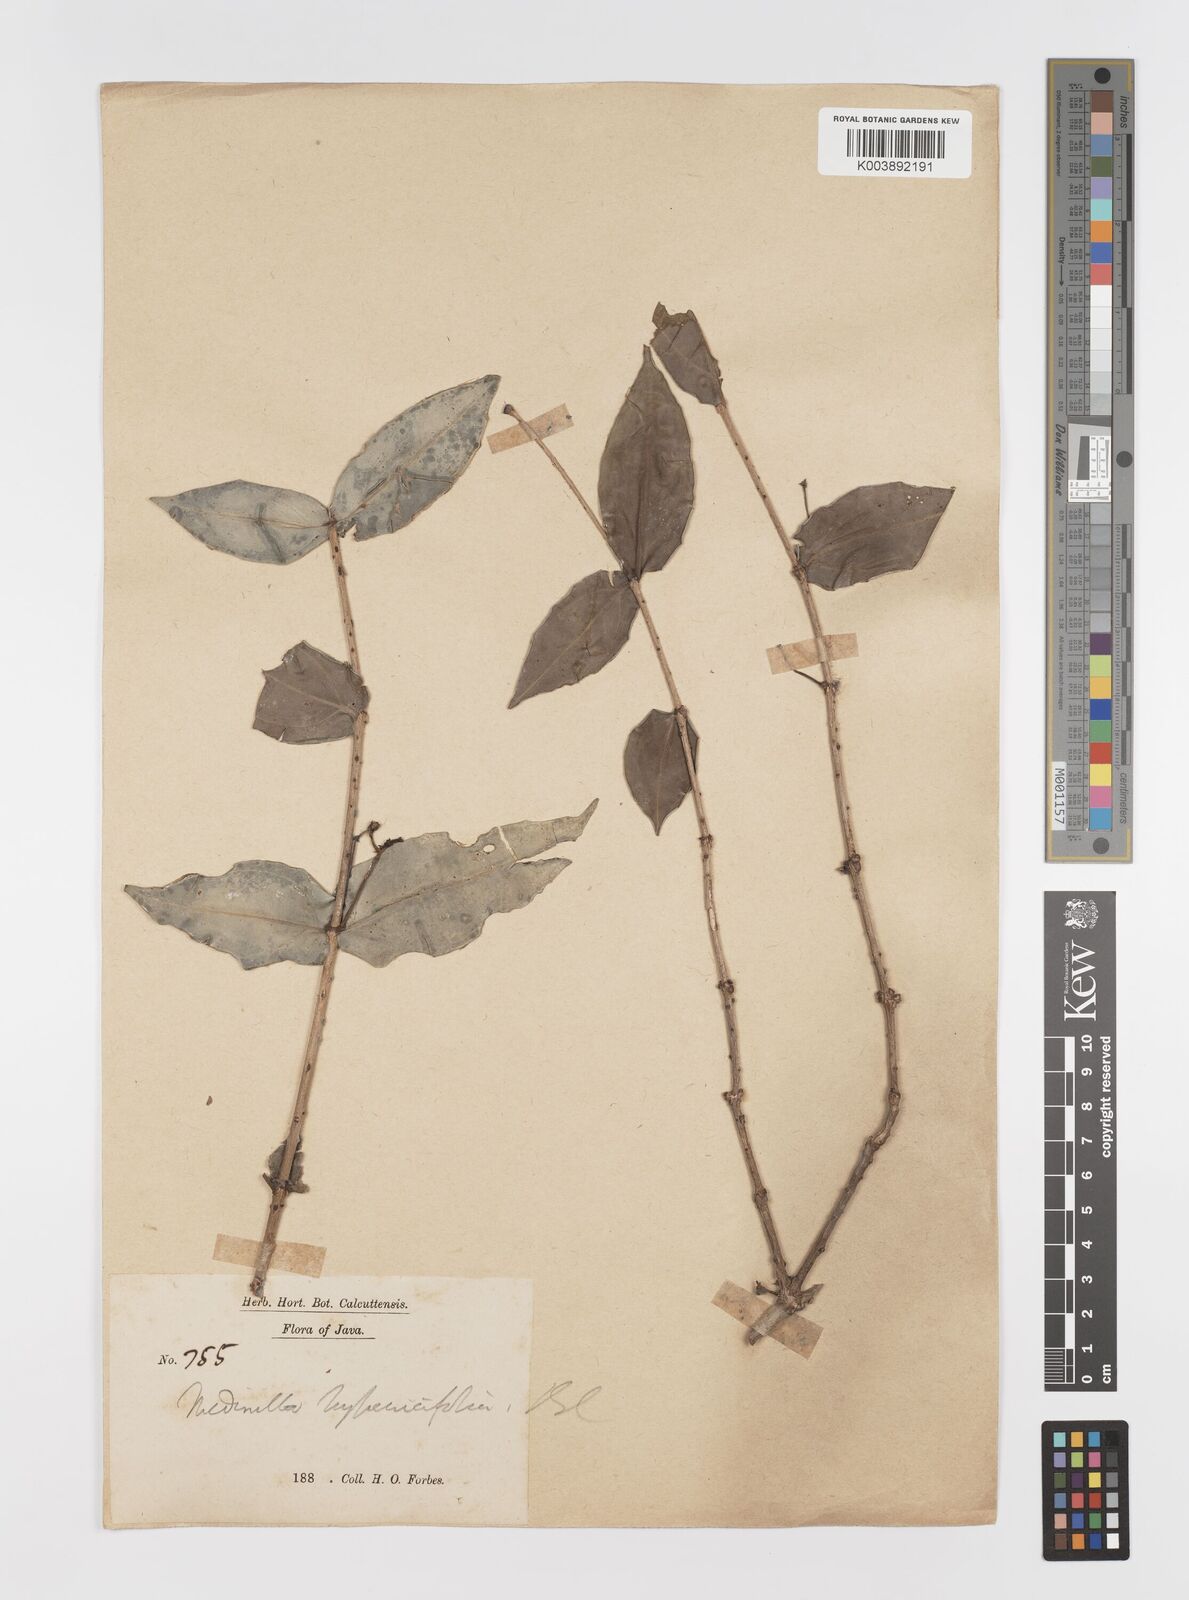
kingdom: Plantae
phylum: Tracheophyta
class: Magnoliopsida
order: Myrtales
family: Melastomataceae
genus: Medinilla
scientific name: Medinilla hypericifolia
